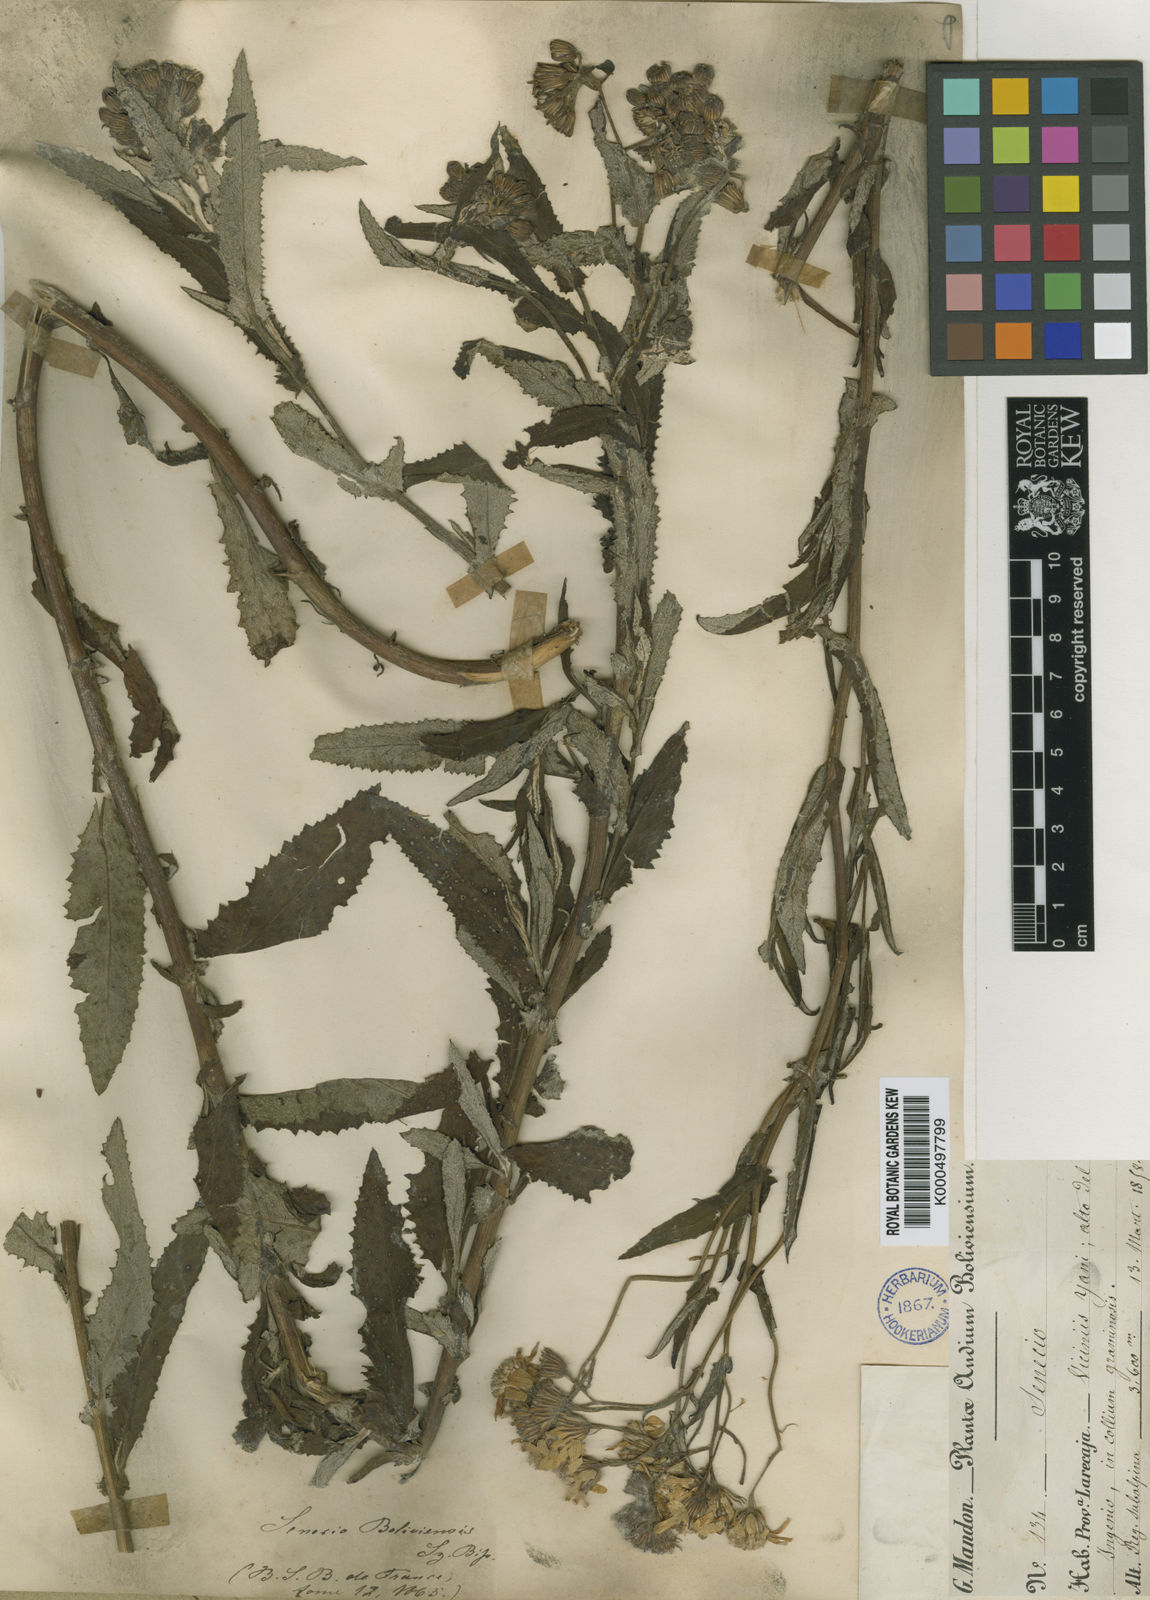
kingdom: Plantae
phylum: Tracheophyta
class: Magnoliopsida
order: Asterales
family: Asteraceae
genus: Senecio
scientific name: Senecio boliviensis
